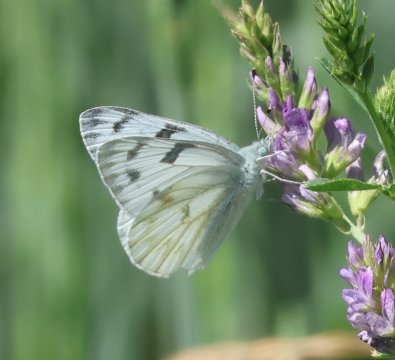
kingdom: Animalia
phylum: Arthropoda
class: Insecta
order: Lepidoptera
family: Pieridae
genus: Pontia
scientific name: Pontia protodice
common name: Checkered White
